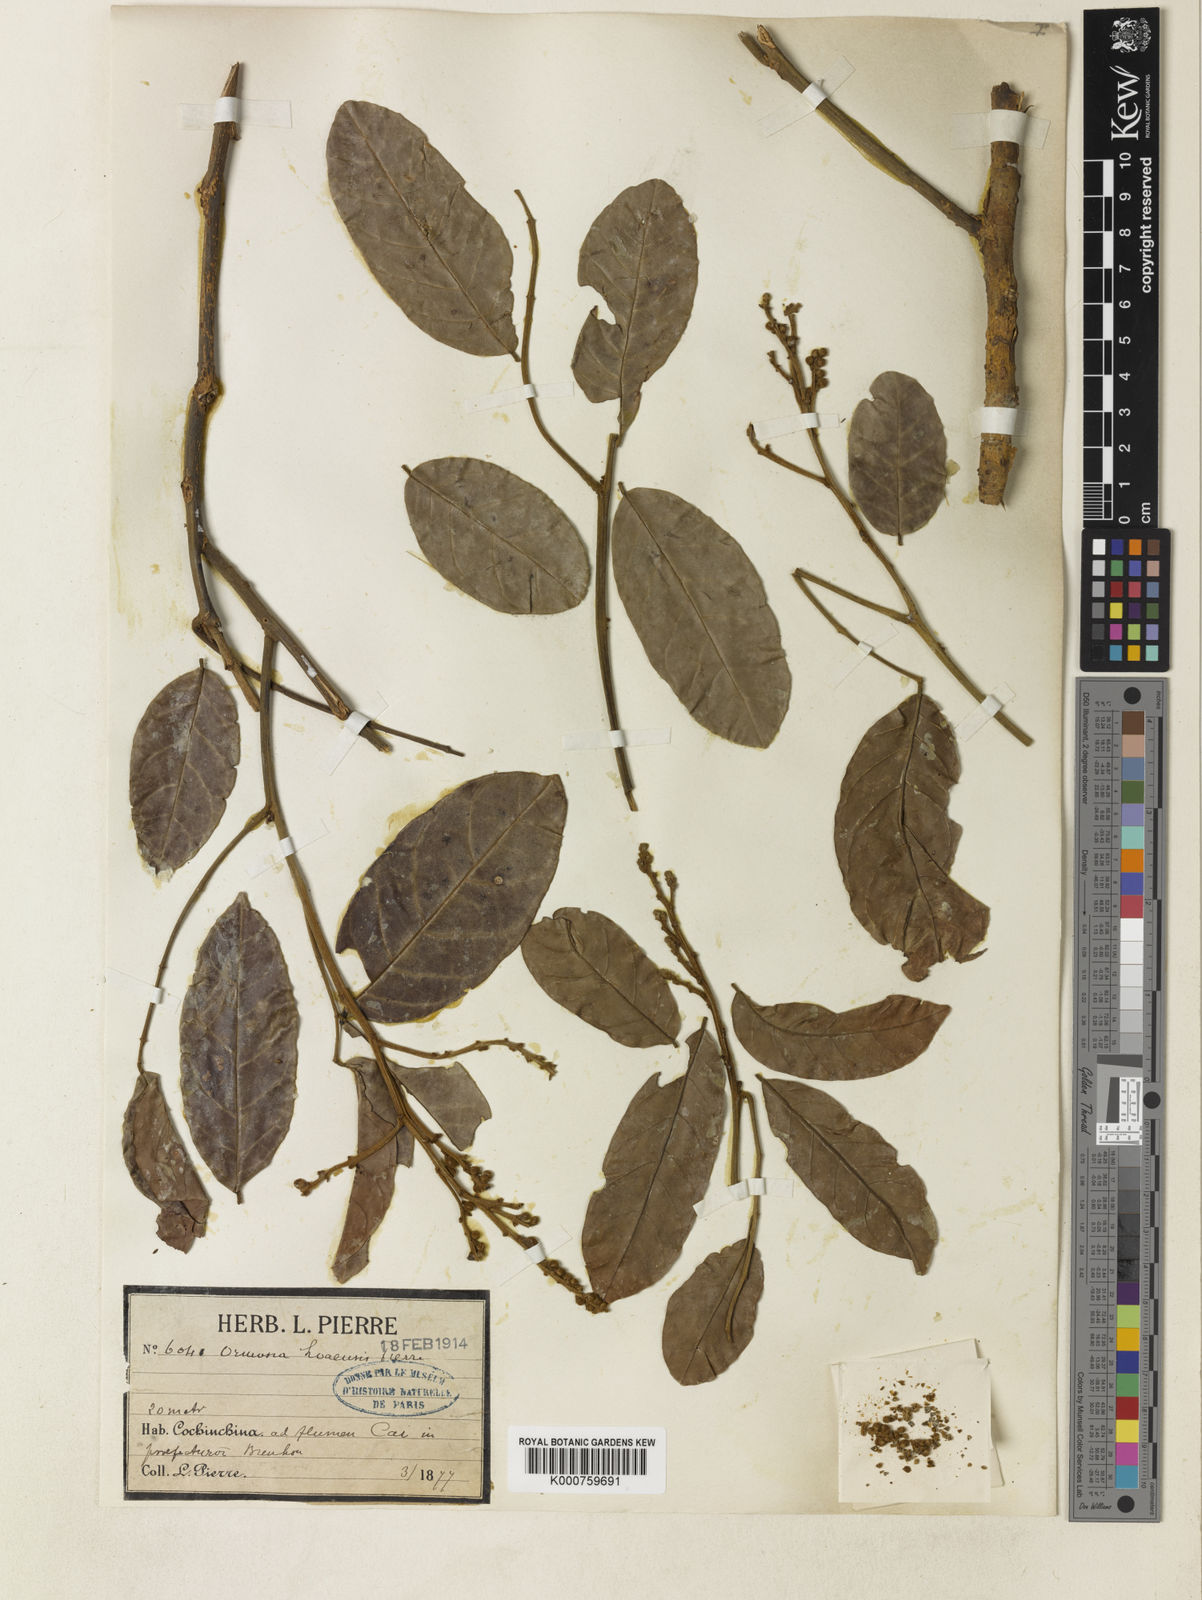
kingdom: Plantae
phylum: Tracheophyta
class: Magnoliopsida
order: Fabales
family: Fabaceae
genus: Ormosia
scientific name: Ormosia
